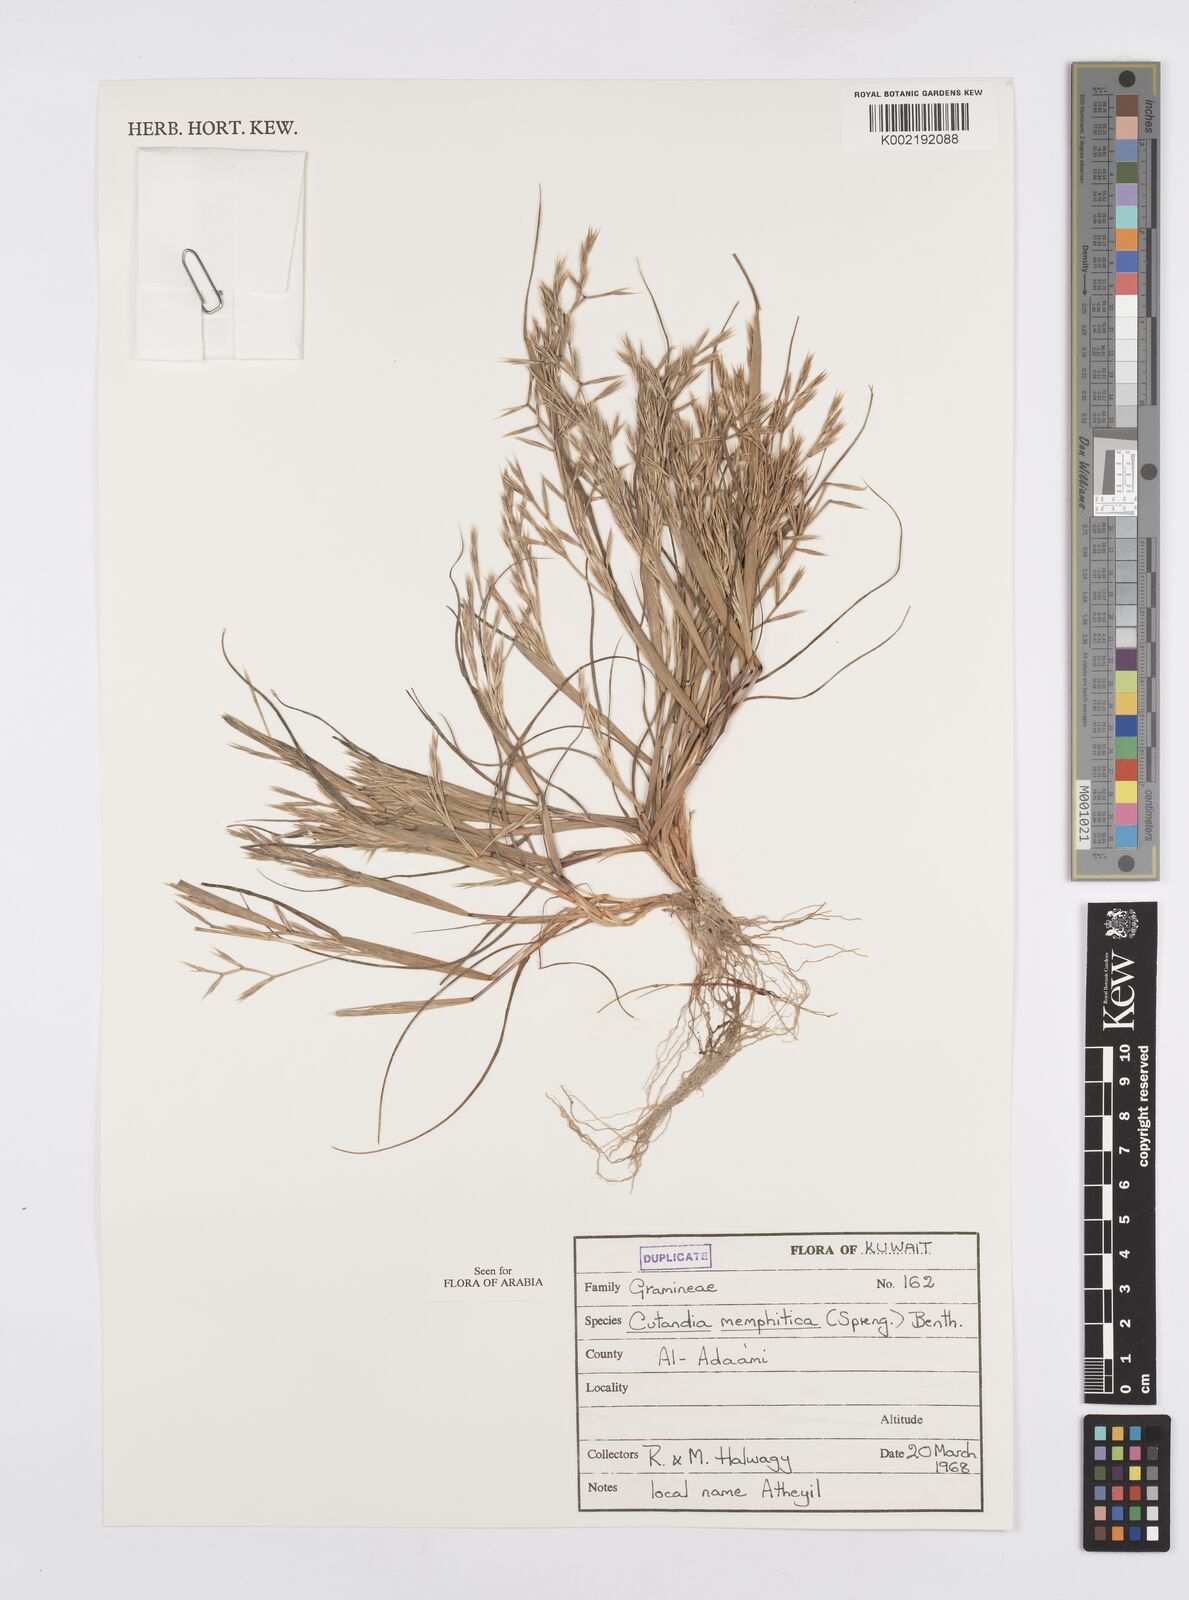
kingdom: Plantae
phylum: Tracheophyta
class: Liliopsida
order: Poales
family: Poaceae
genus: Cutandia
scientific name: Cutandia memphitica
